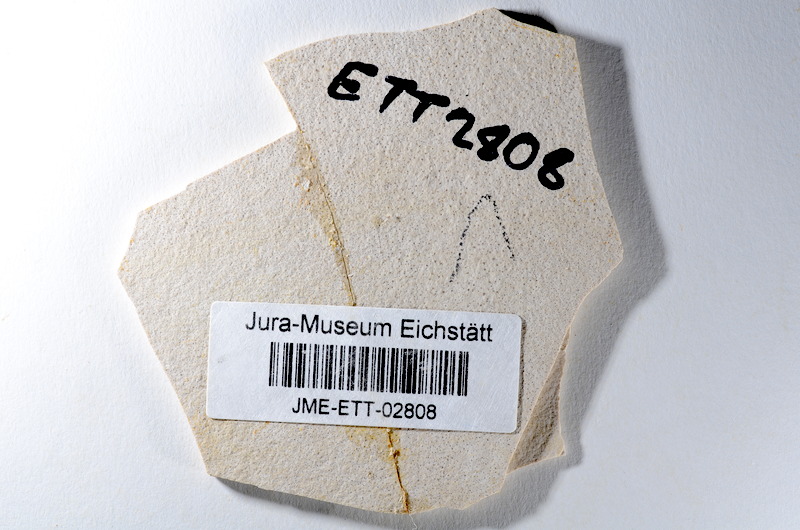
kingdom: Animalia
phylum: Chordata
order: Salmoniformes
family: Orthogonikleithridae
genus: Orthogonikleithrus
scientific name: Orthogonikleithrus hoelli
